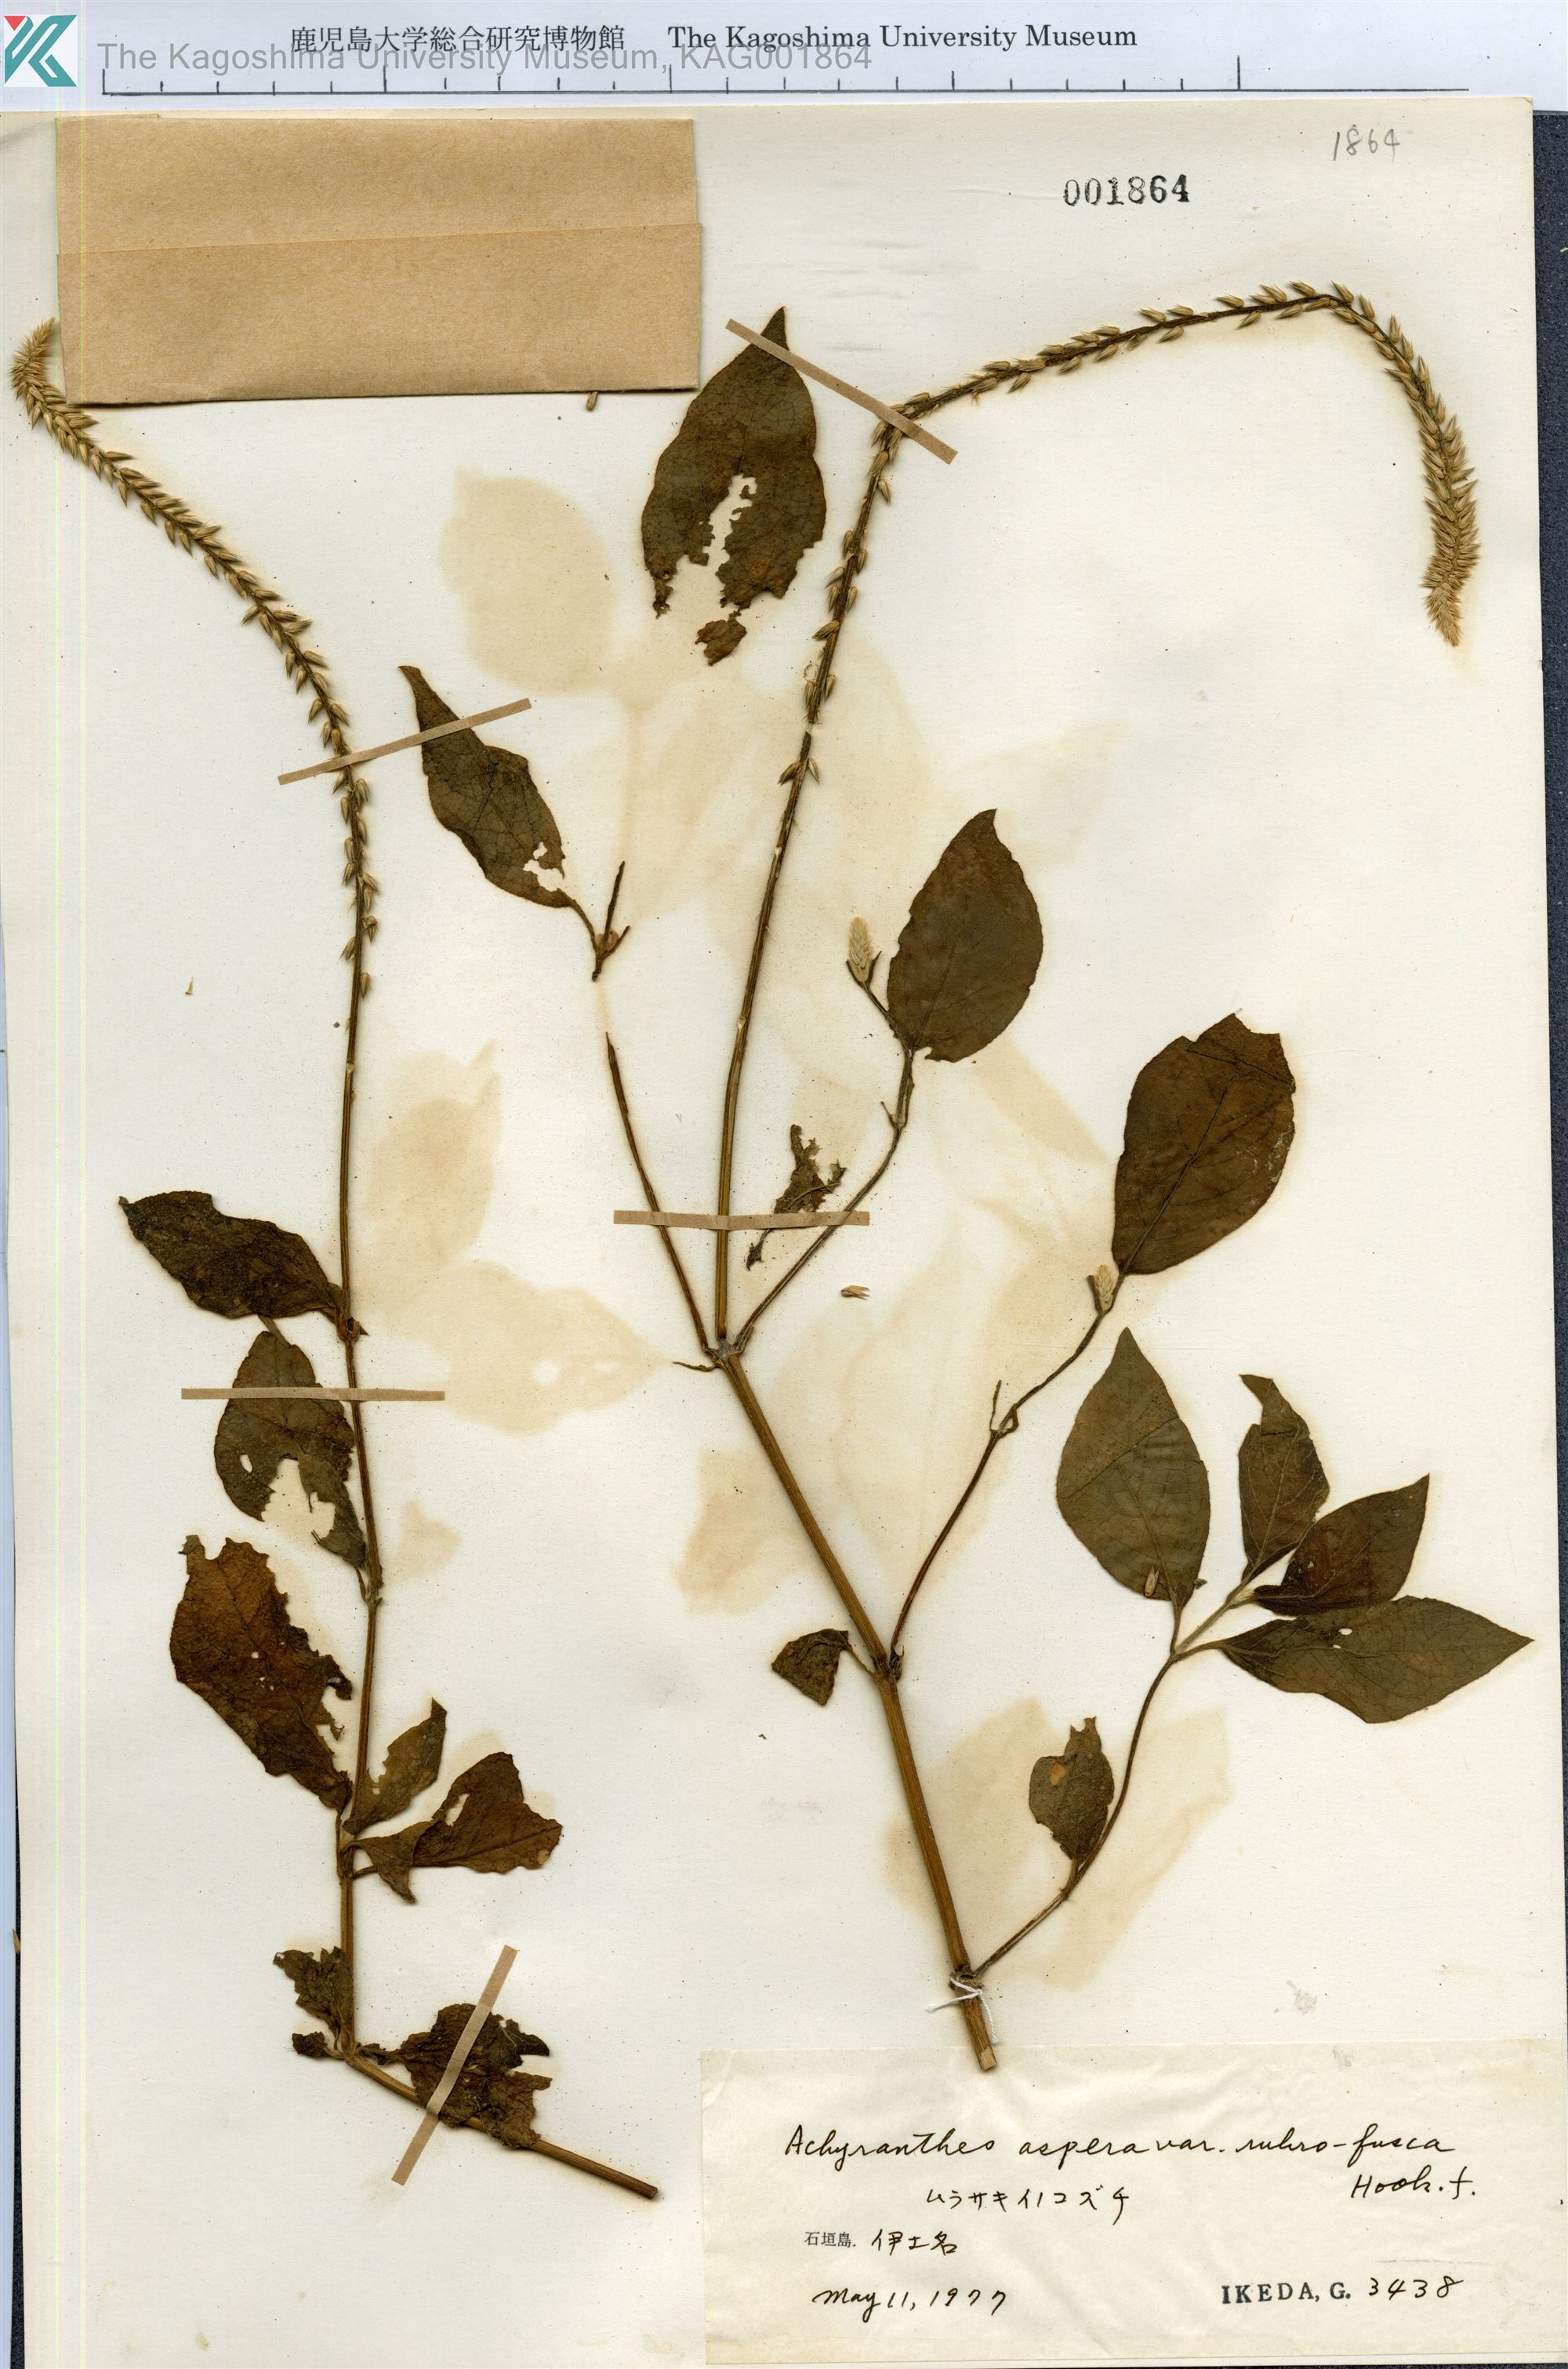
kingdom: Plantae
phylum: Tracheophyta
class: Magnoliopsida
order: Caryophyllales
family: Amaranthaceae
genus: Achyranthes
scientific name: Achyranthes aspera
